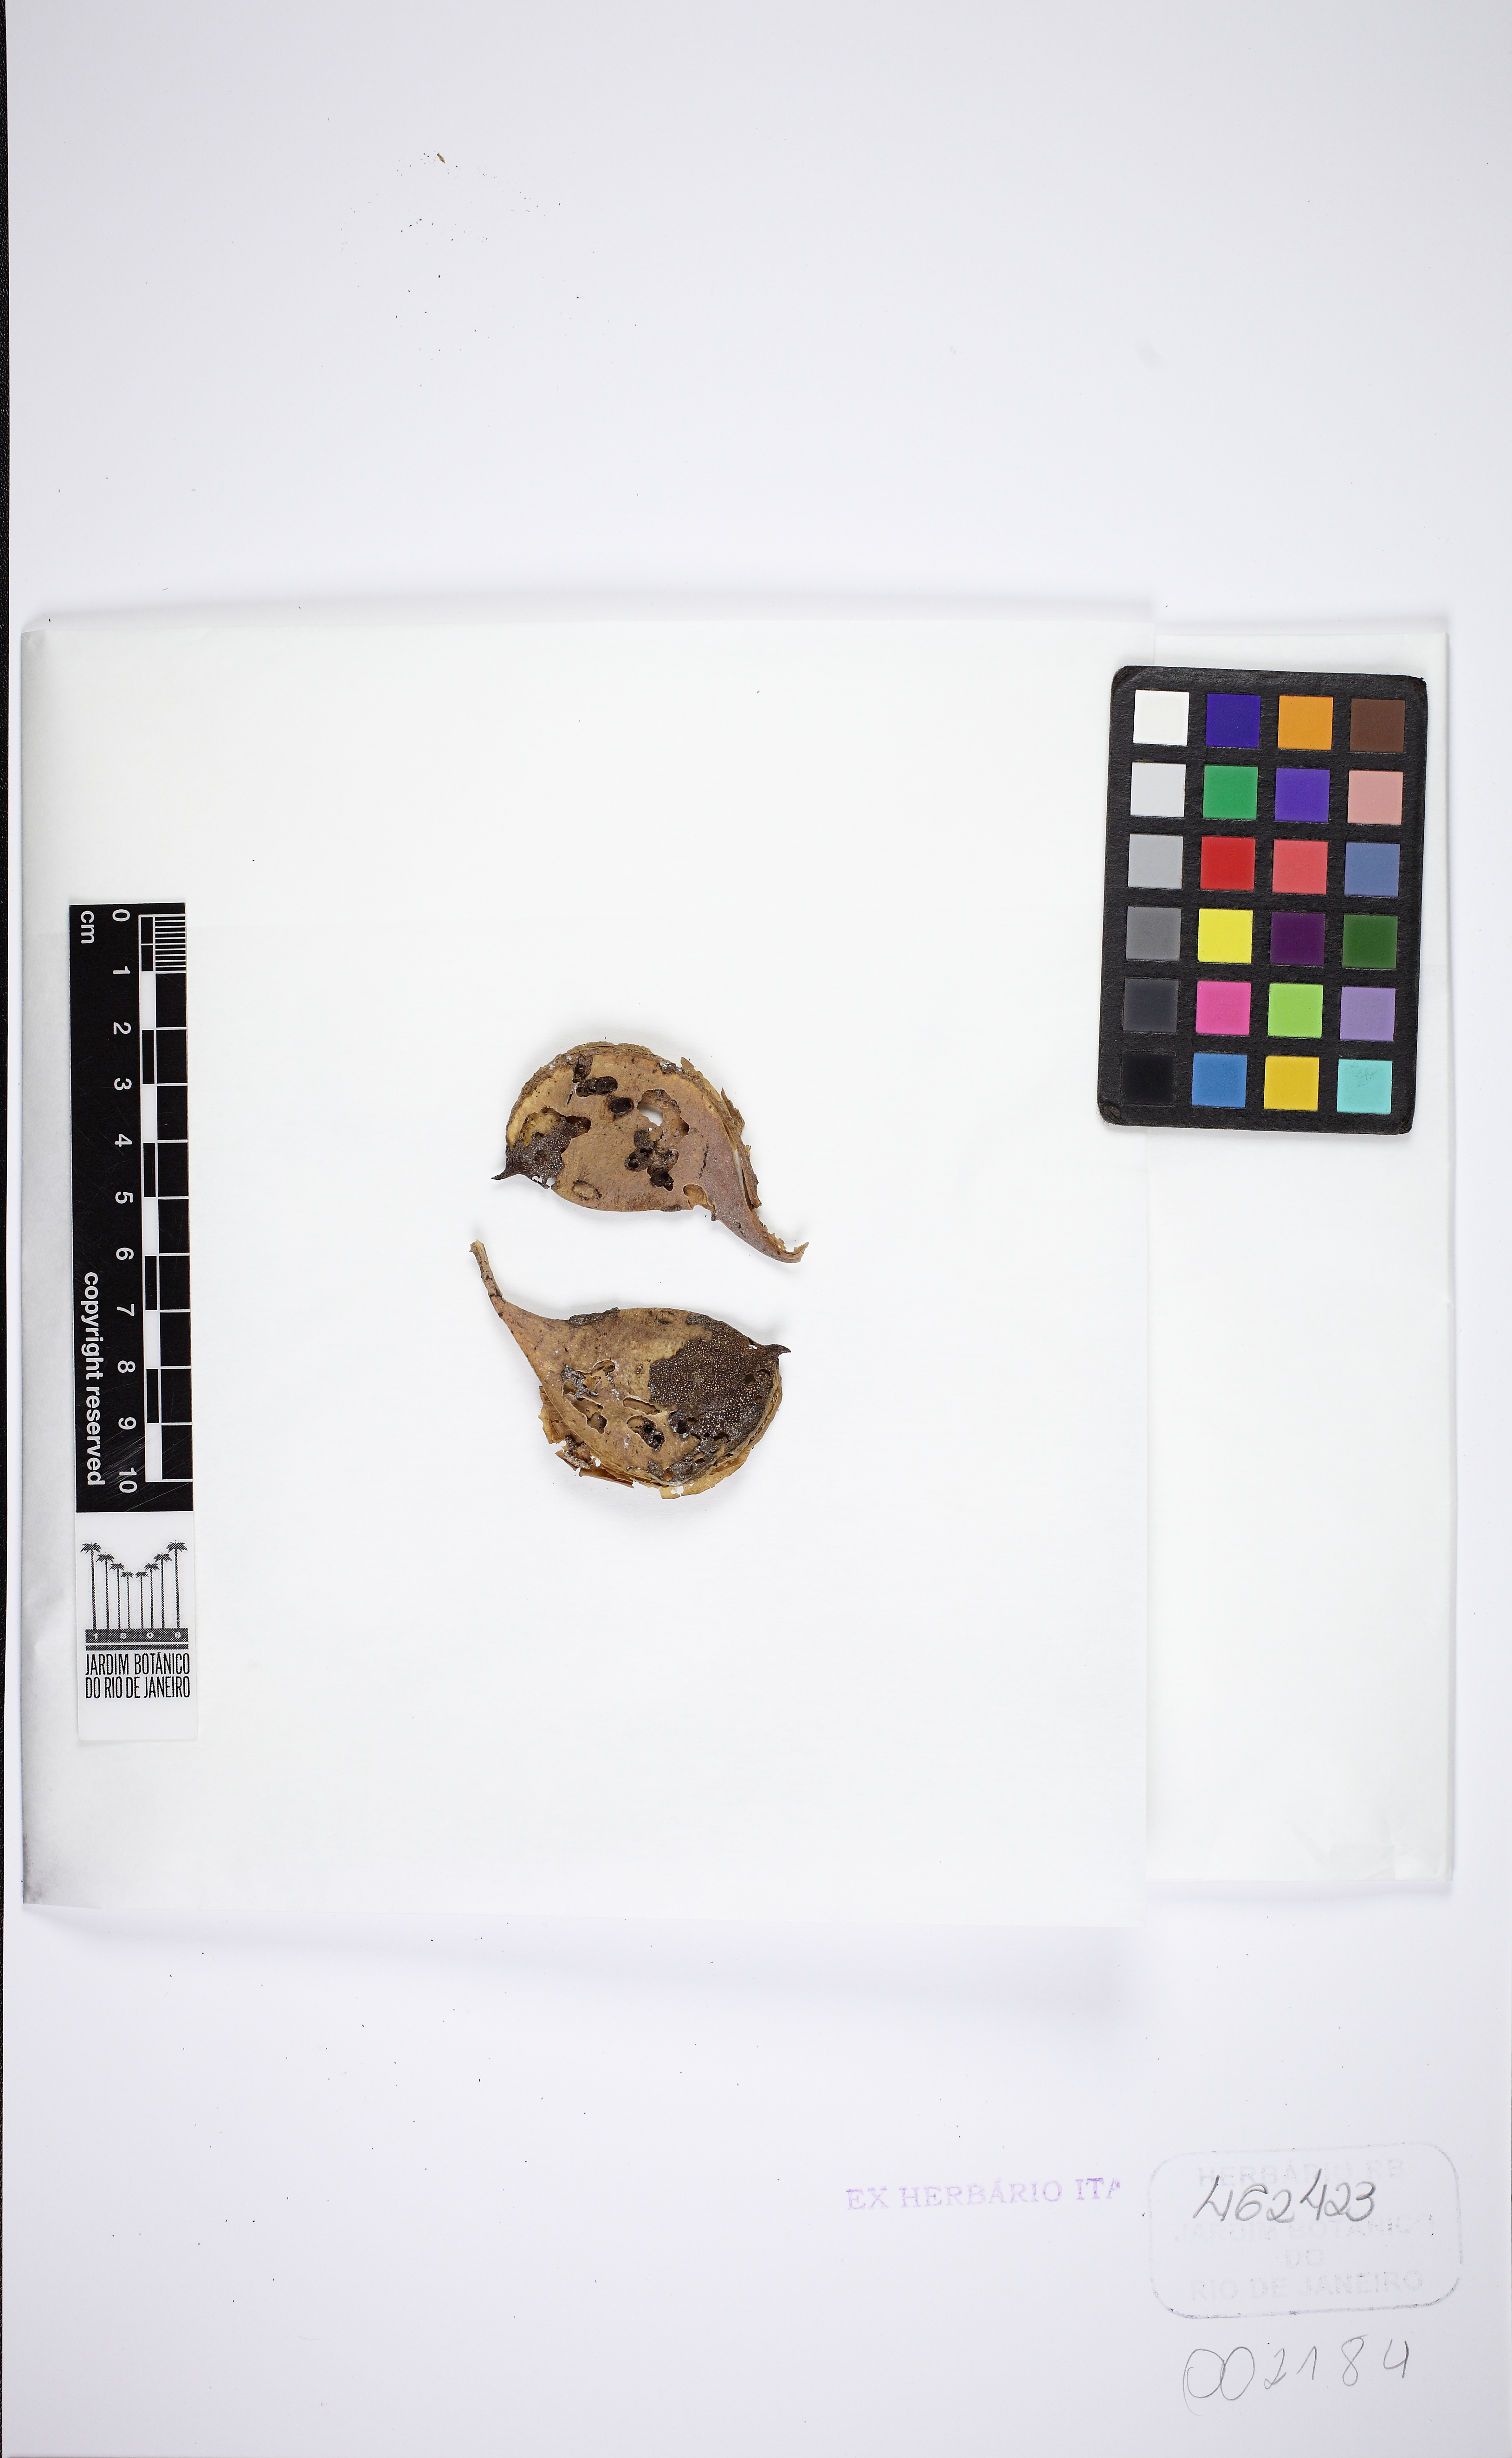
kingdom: Plantae
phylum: Tracheophyta
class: Magnoliopsida
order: Gentianales
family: Apocynaceae
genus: Aspidosperma
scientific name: Aspidosperma olivaceum
